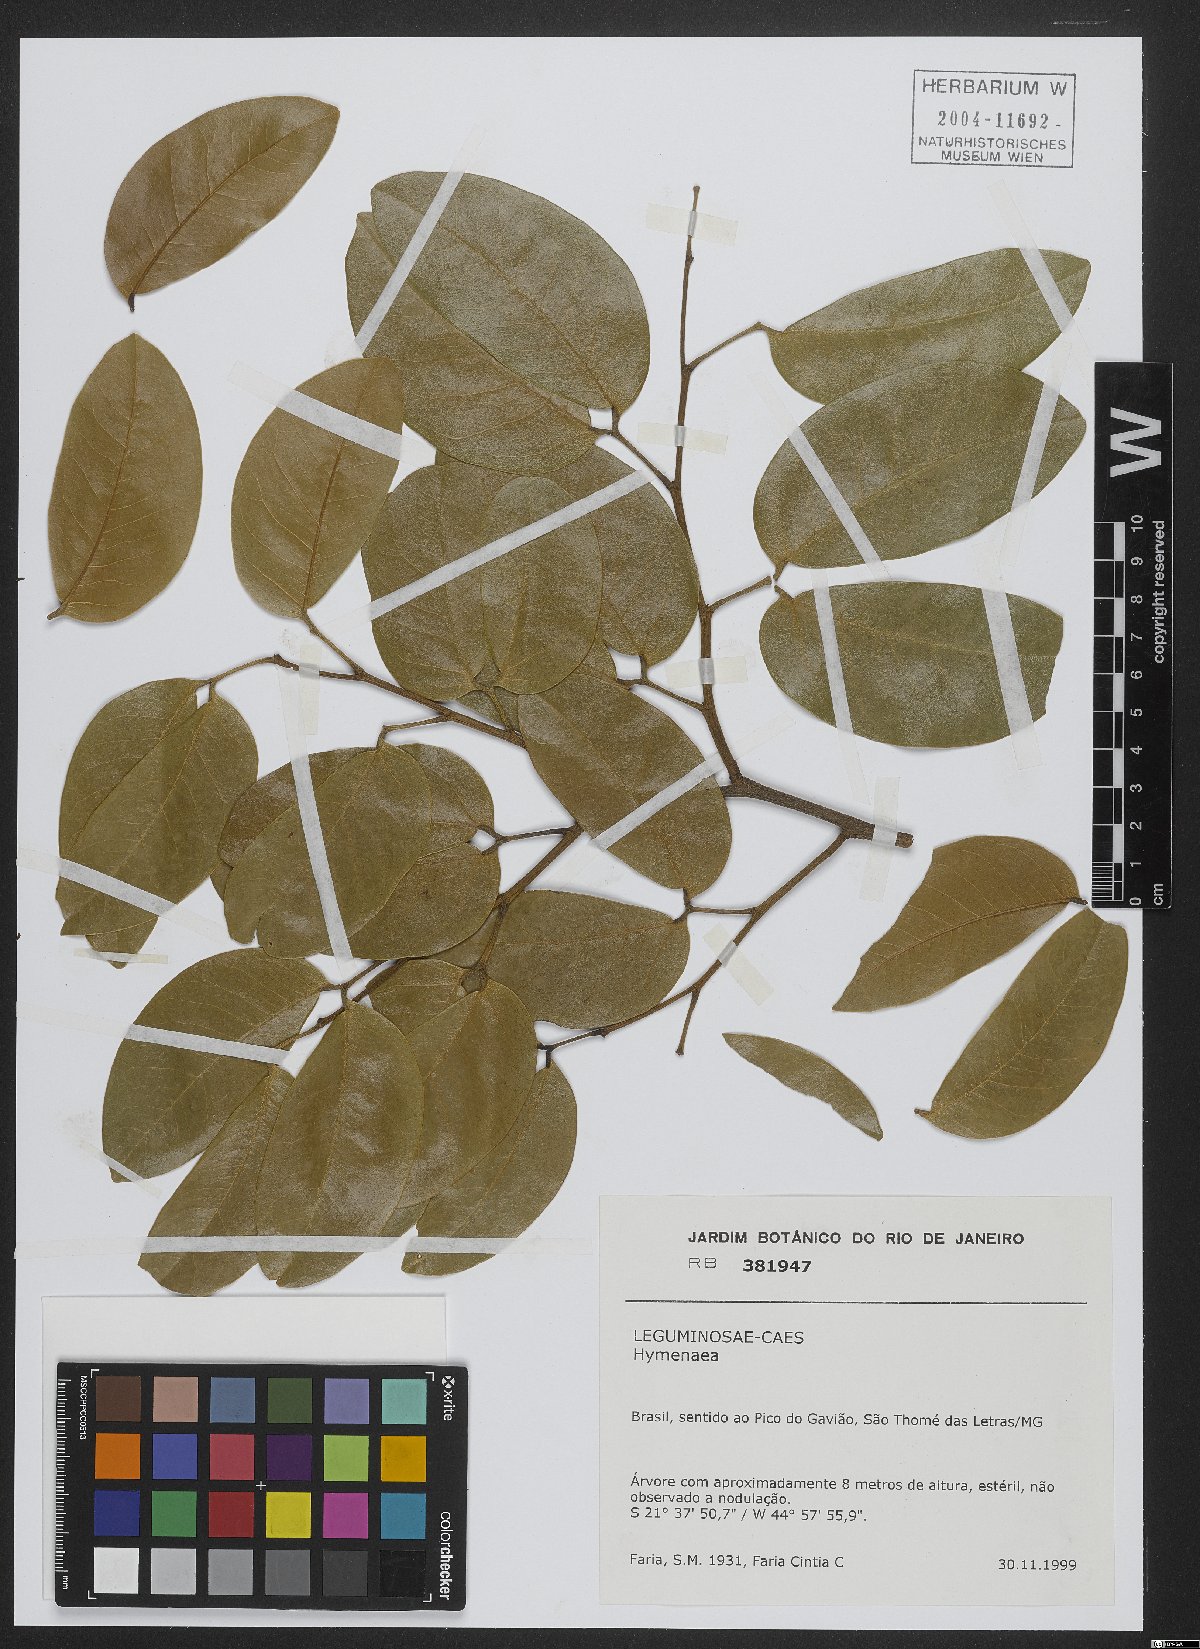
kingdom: Plantae
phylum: Tracheophyta
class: Magnoliopsida
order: Fabales
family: Fabaceae
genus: Hymenaea
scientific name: Hymenaea
